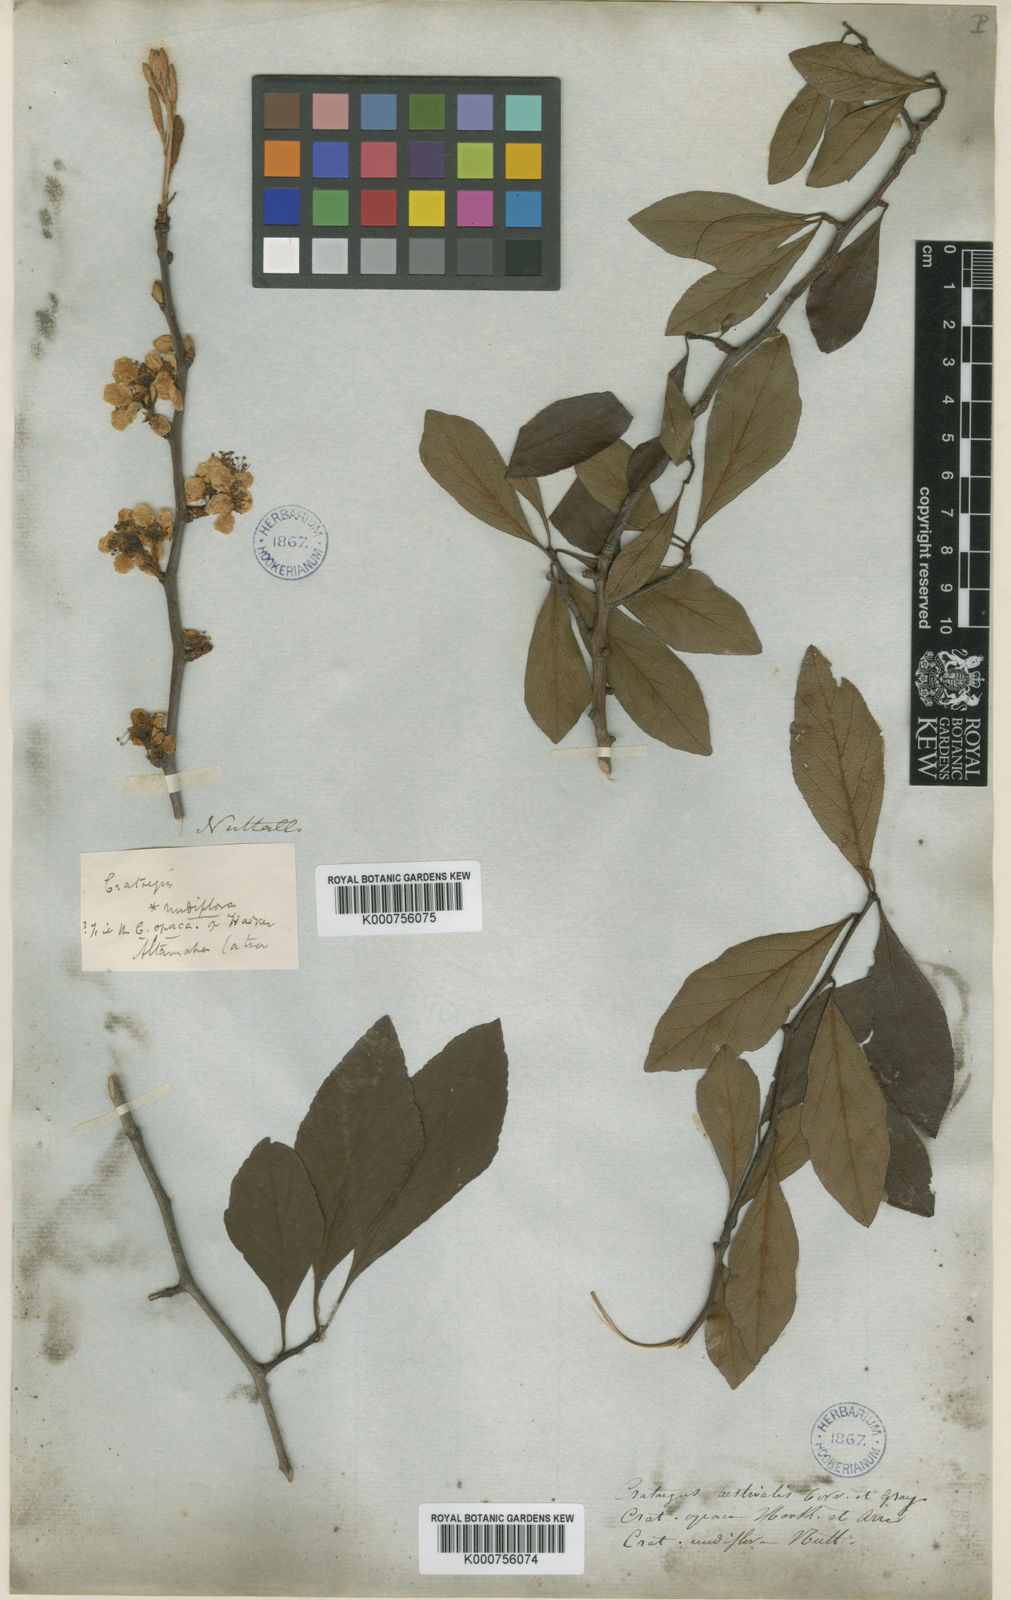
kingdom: Plantae
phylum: Tracheophyta
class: Magnoliopsida
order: Rosales
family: Rosaceae
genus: Crataegus
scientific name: Crataegus aestivalis
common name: Mayhaw
